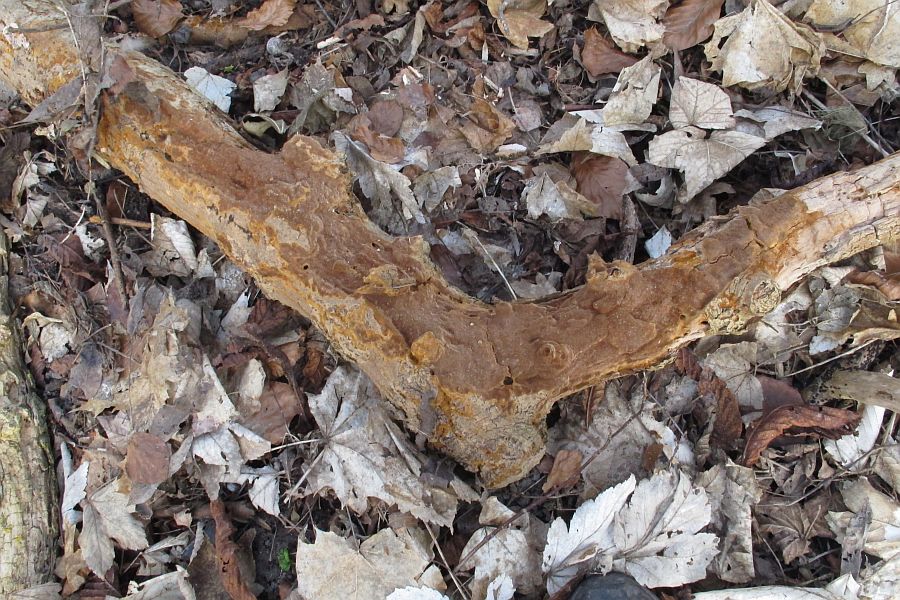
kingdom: Fungi
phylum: Basidiomycota
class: Agaricomycetes
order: Hymenochaetales
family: Hymenochaetaceae
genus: Fuscoporia
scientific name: Fuscoporia ferrea
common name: skorpe-ildporesvamp
